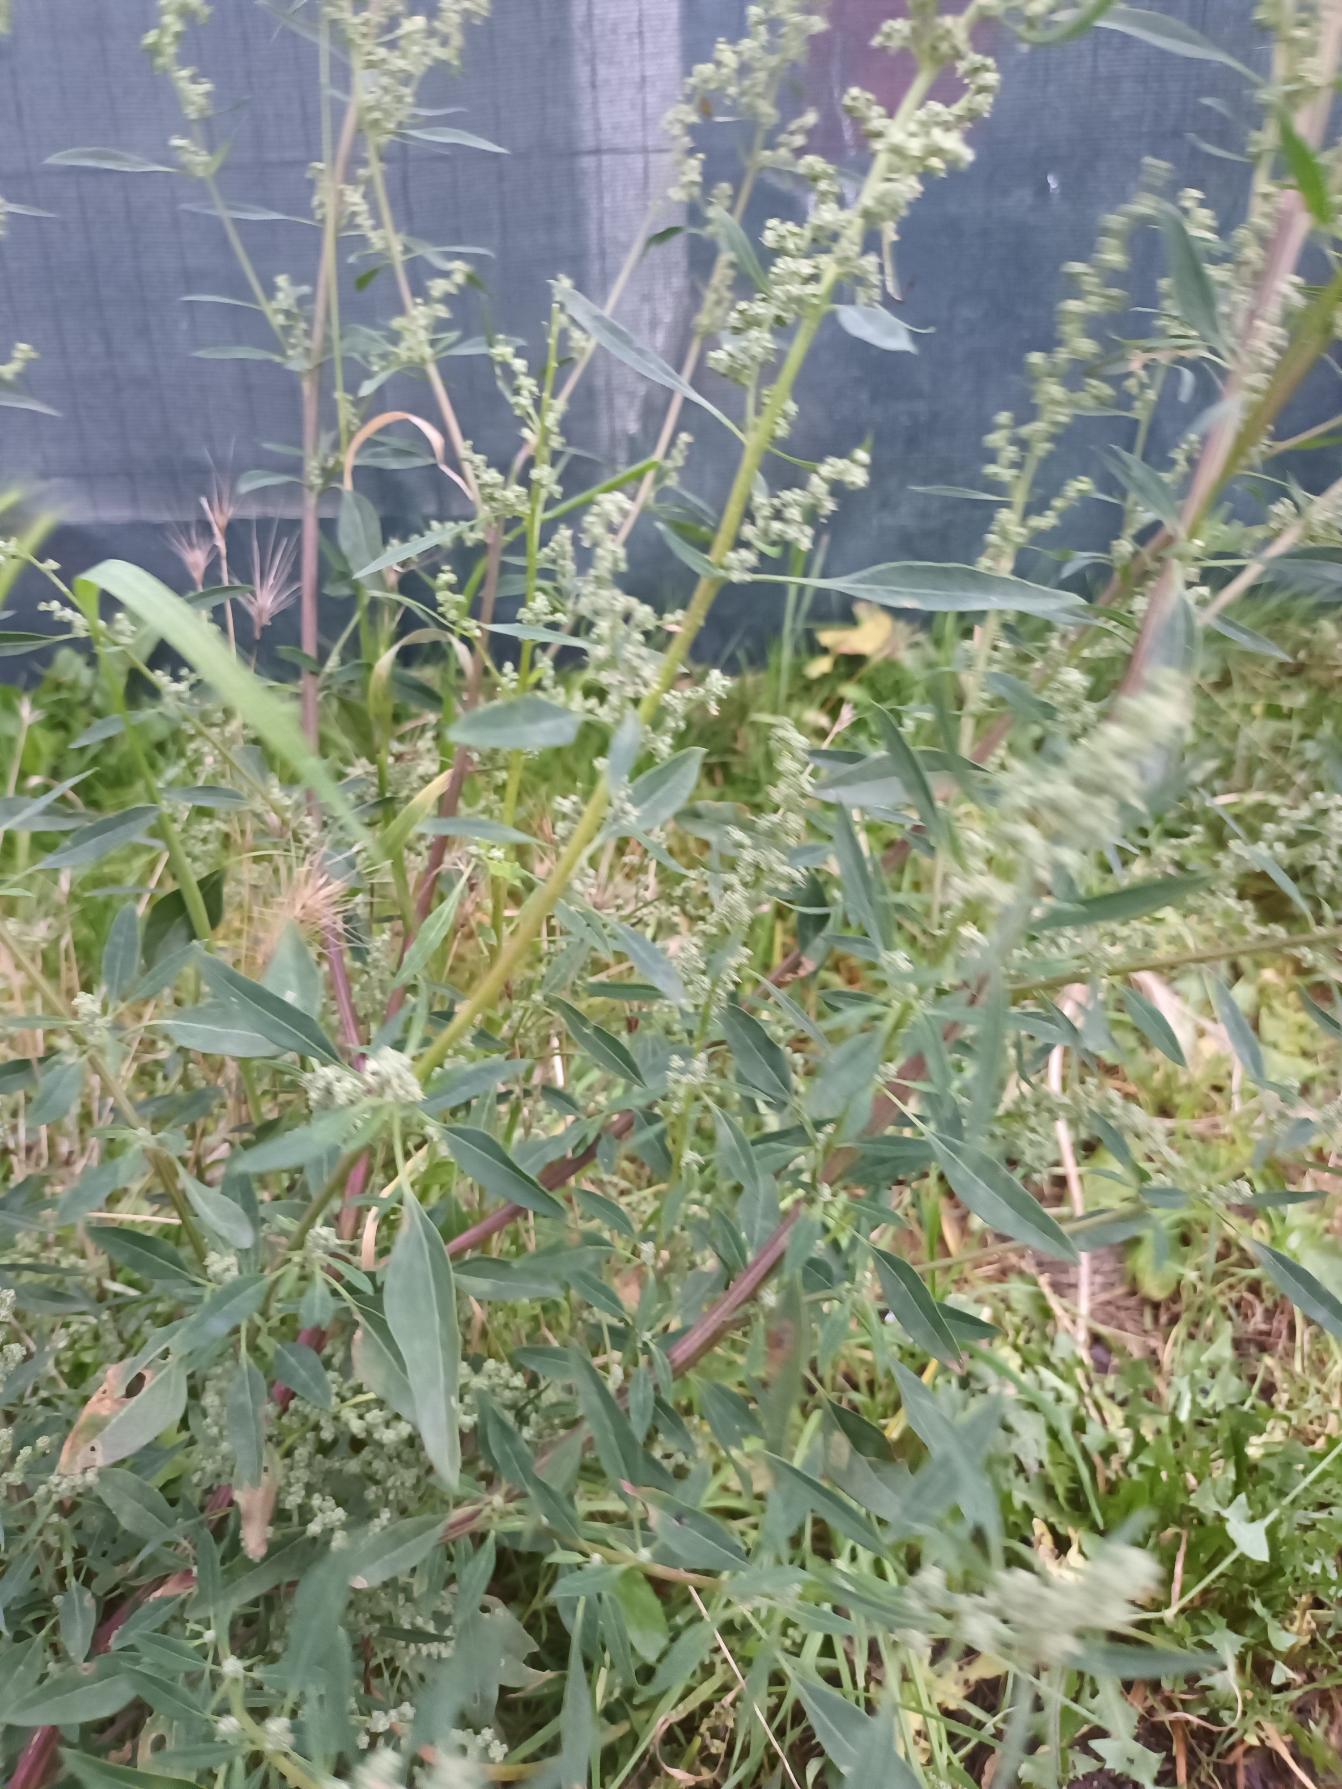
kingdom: Plantae
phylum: Tracheophyta
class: Magnoliopsida
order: Caryophyllales
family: Amaranthaceae
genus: Chenopodium
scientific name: Chenopodium pratericola
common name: Finbladet gåsefod
